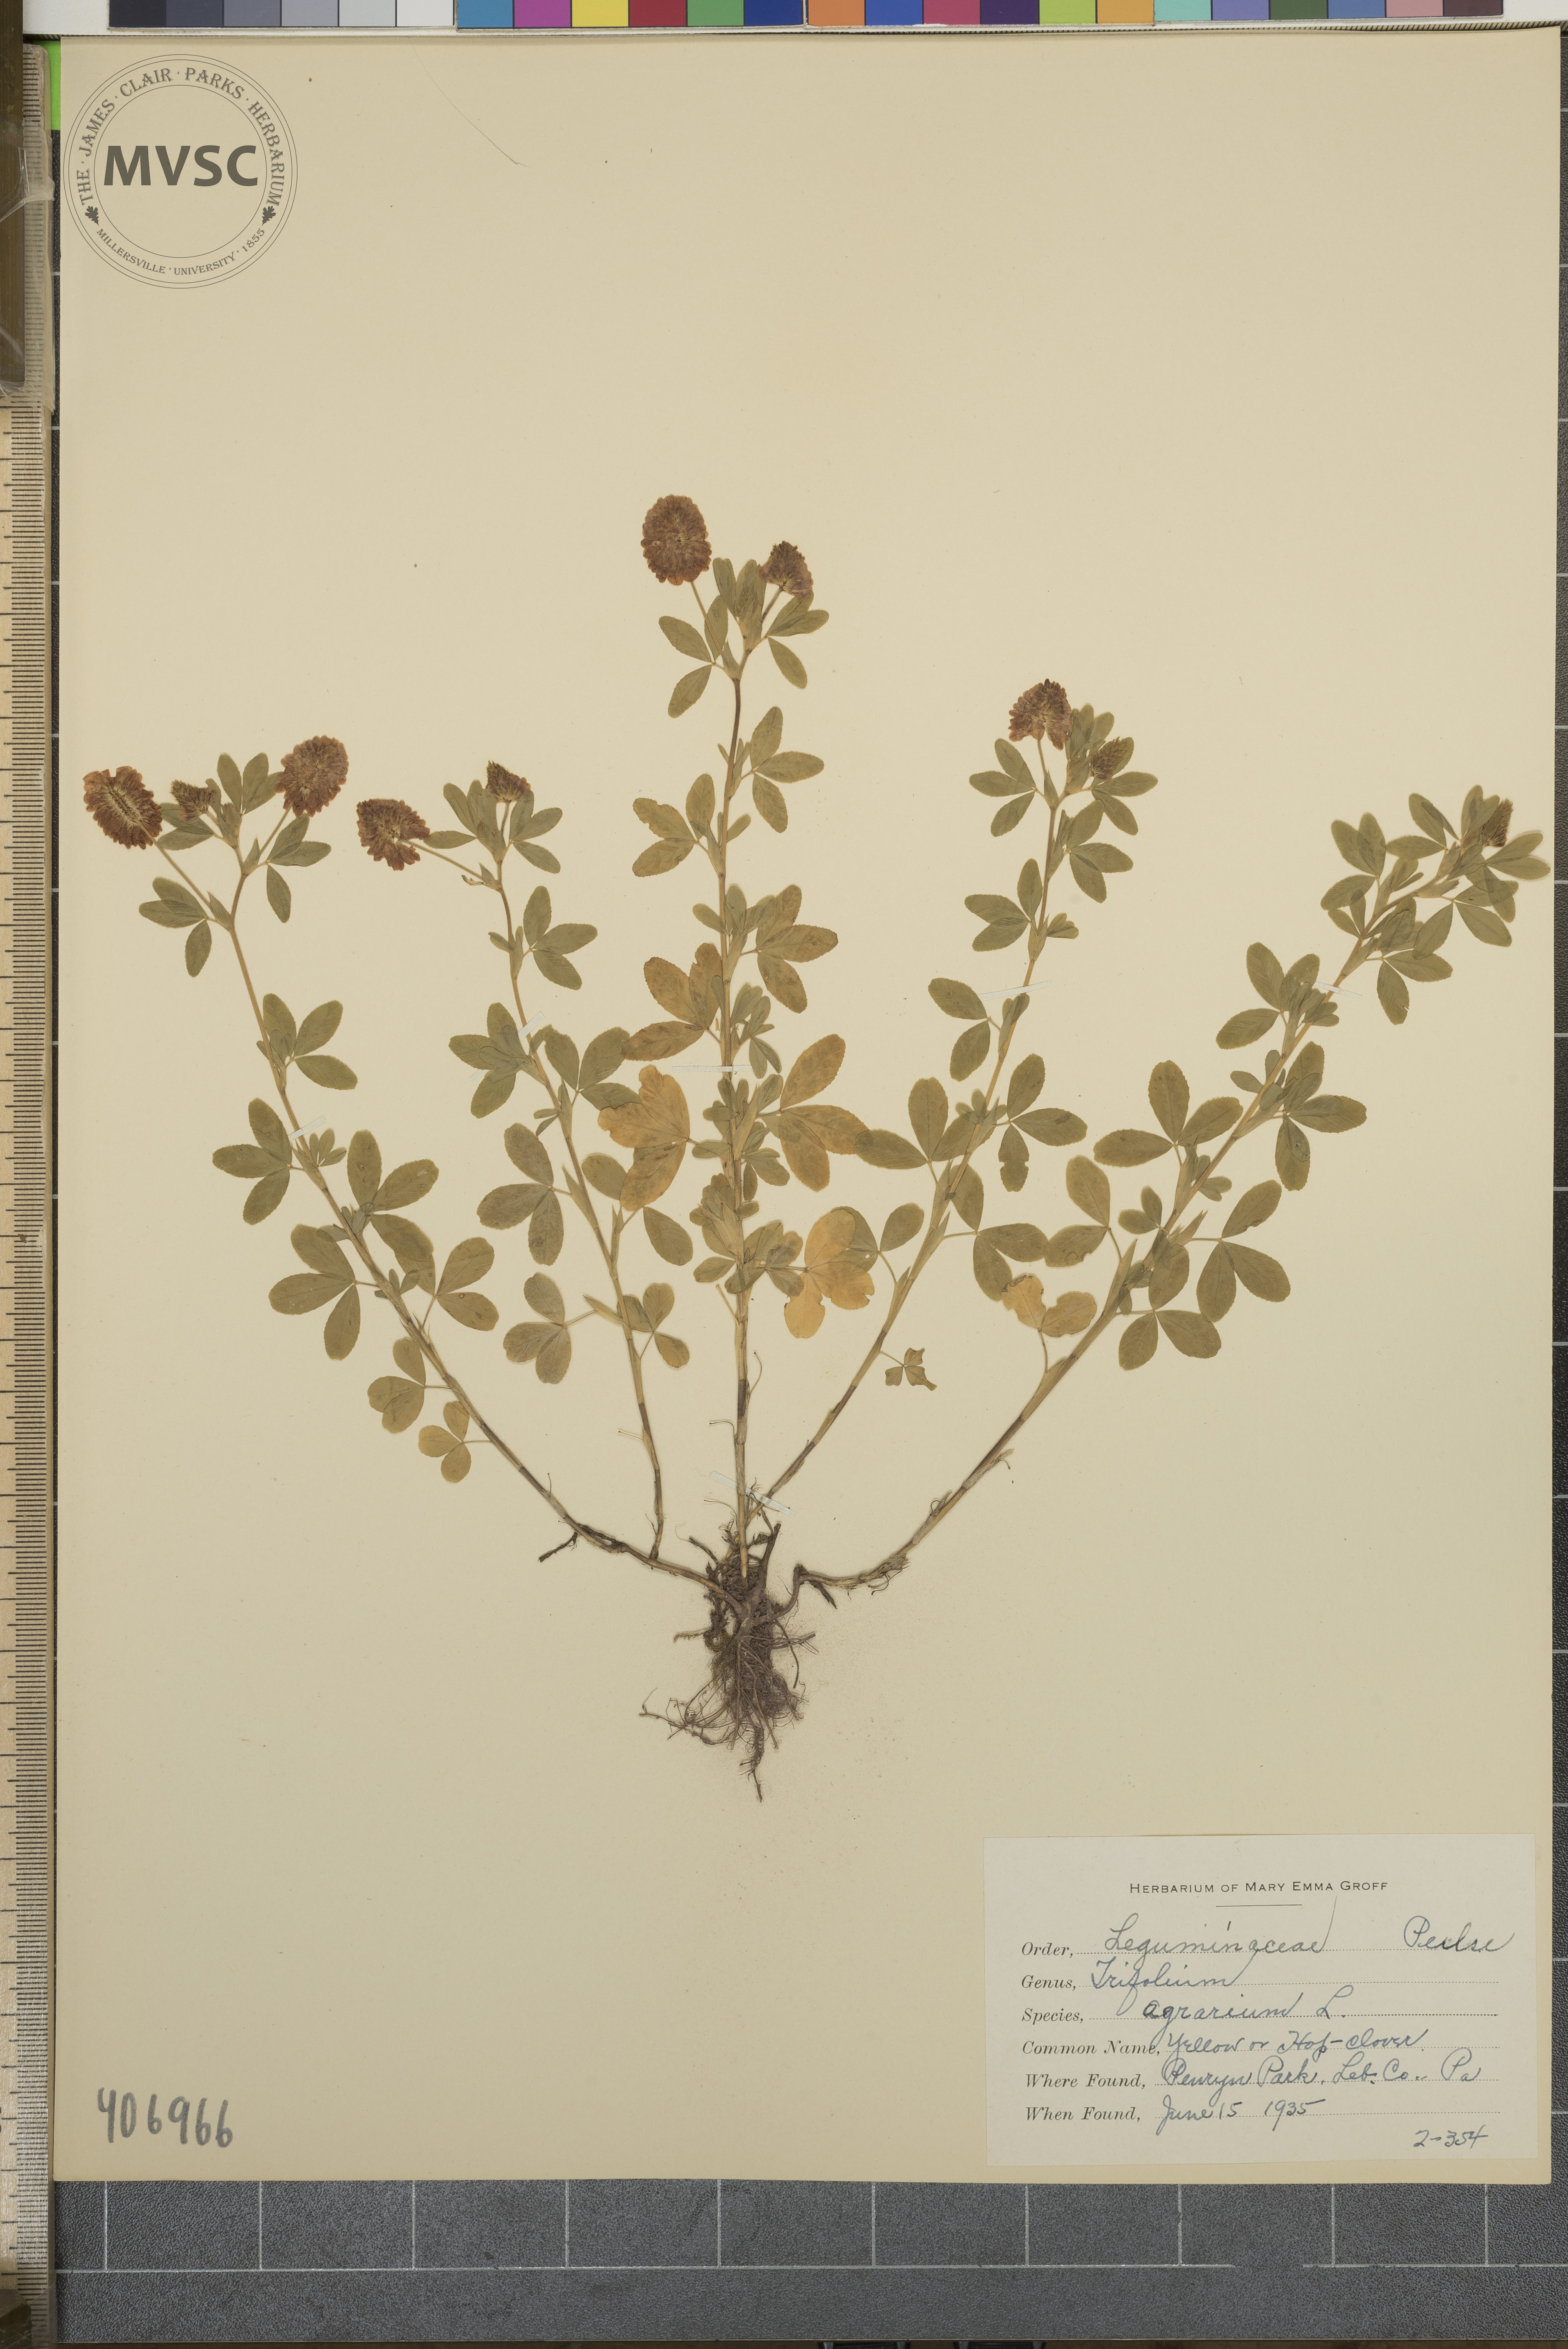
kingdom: Plantae
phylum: Tracheophyta
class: Magnoliopsida
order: Fabales
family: Fabaceae
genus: Trifolium
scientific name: Trifolium aureum
